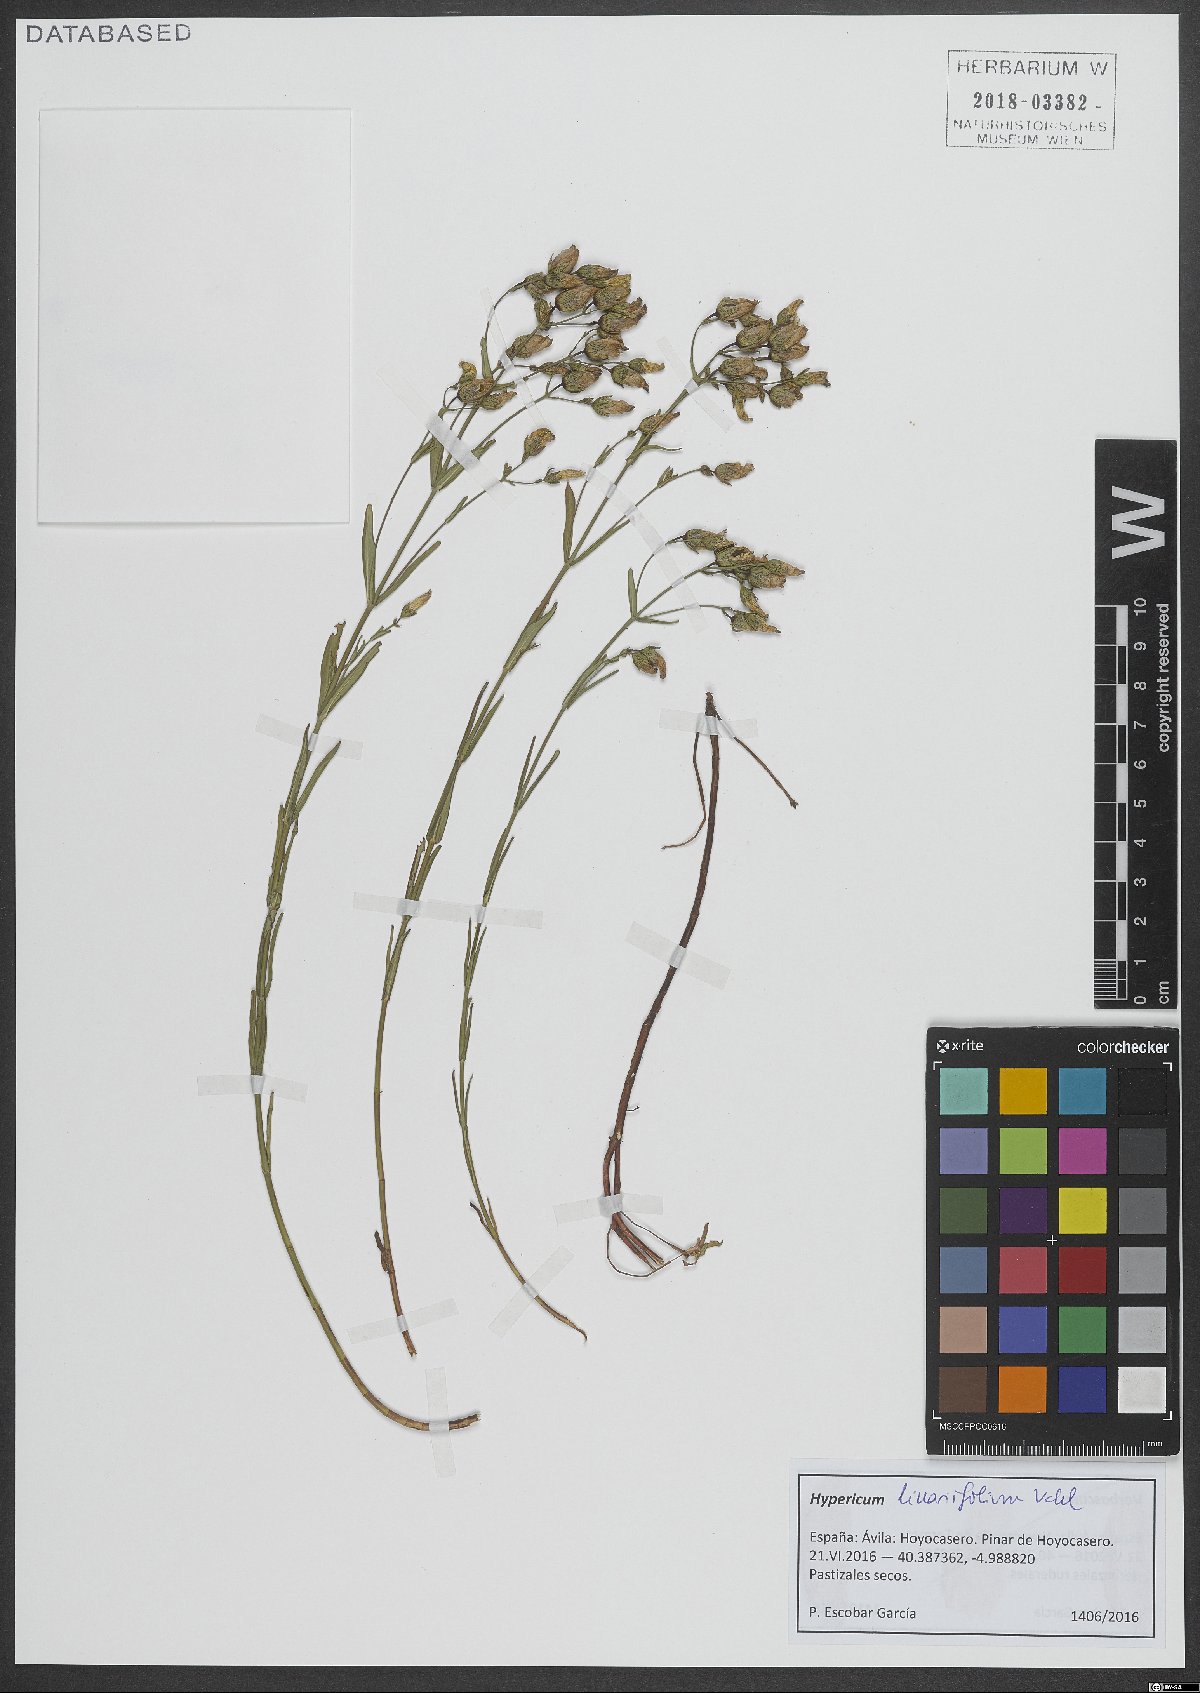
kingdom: Plantae
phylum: Tracheophyta
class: Magnoliopsida
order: Malpighiales
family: Hypericaceae
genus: Hypericum
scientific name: Hypericum linariifolium
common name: Toadflax-leaved st. john's-wort
